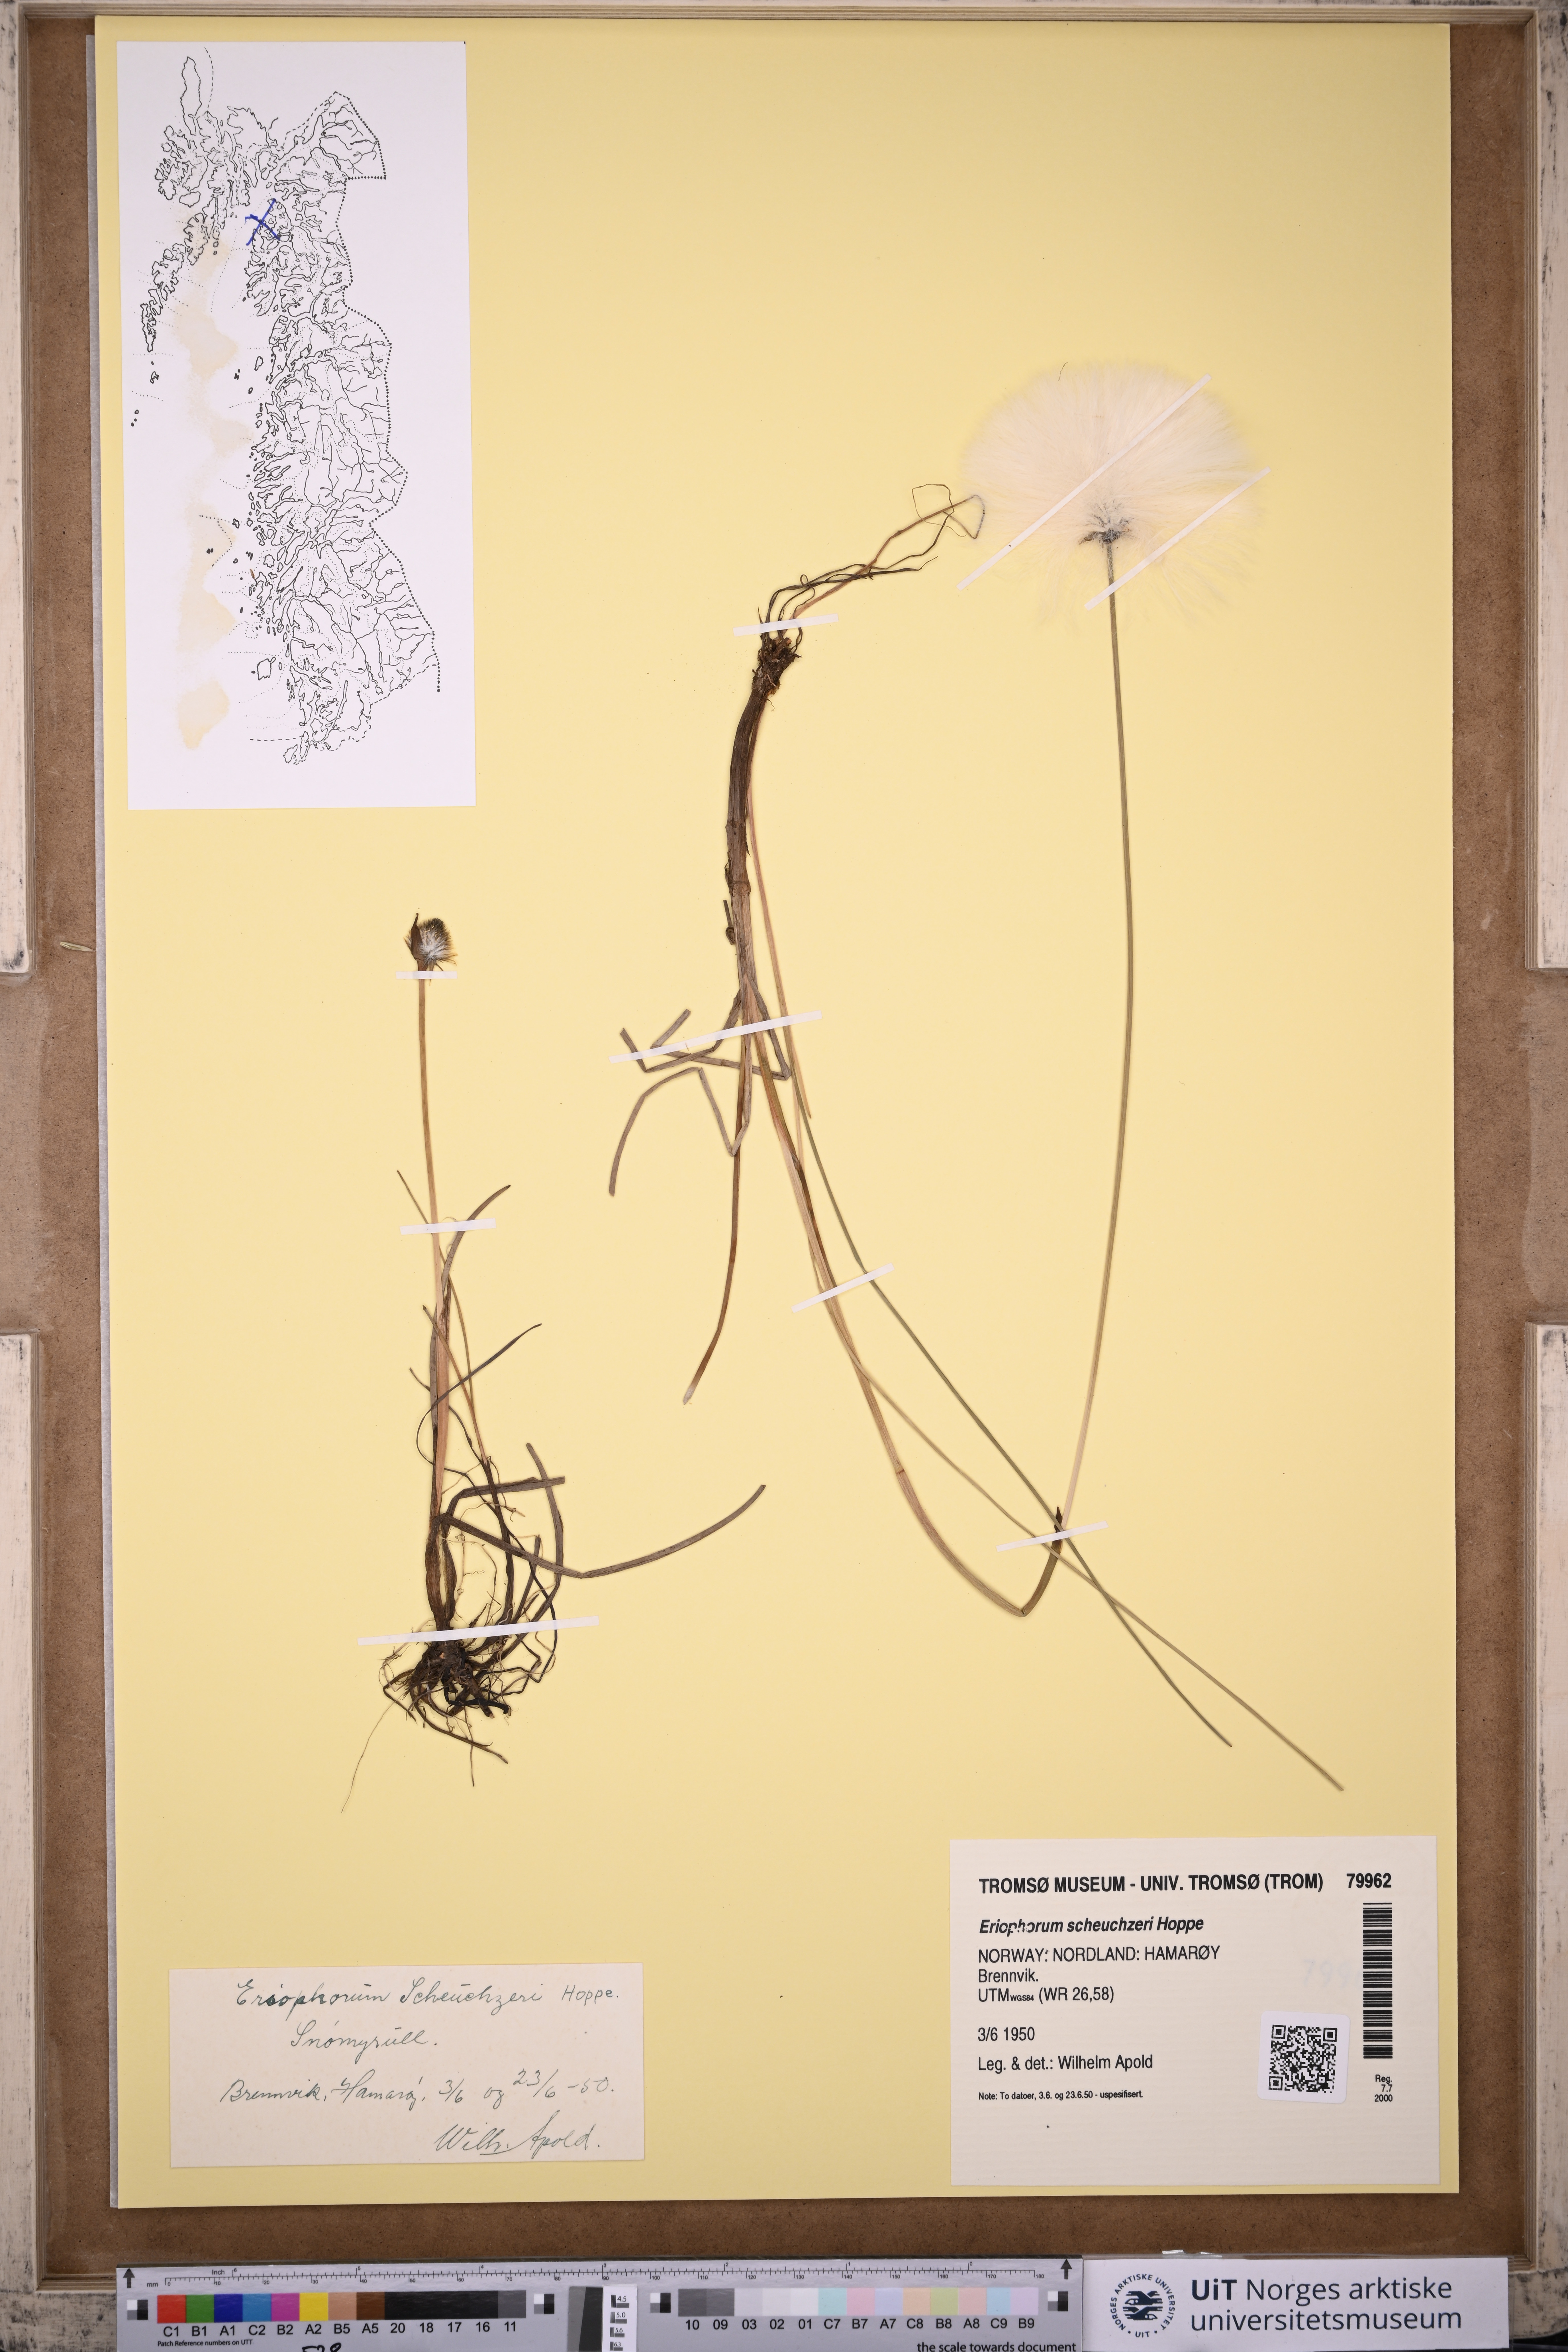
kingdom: Plantae
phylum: Tracheophyta
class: Liliopsida
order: Poales
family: Cyperaceae
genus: Eriophorum
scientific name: Eriophorum scheuchzeri
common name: Scheuchzer's cottongrass
